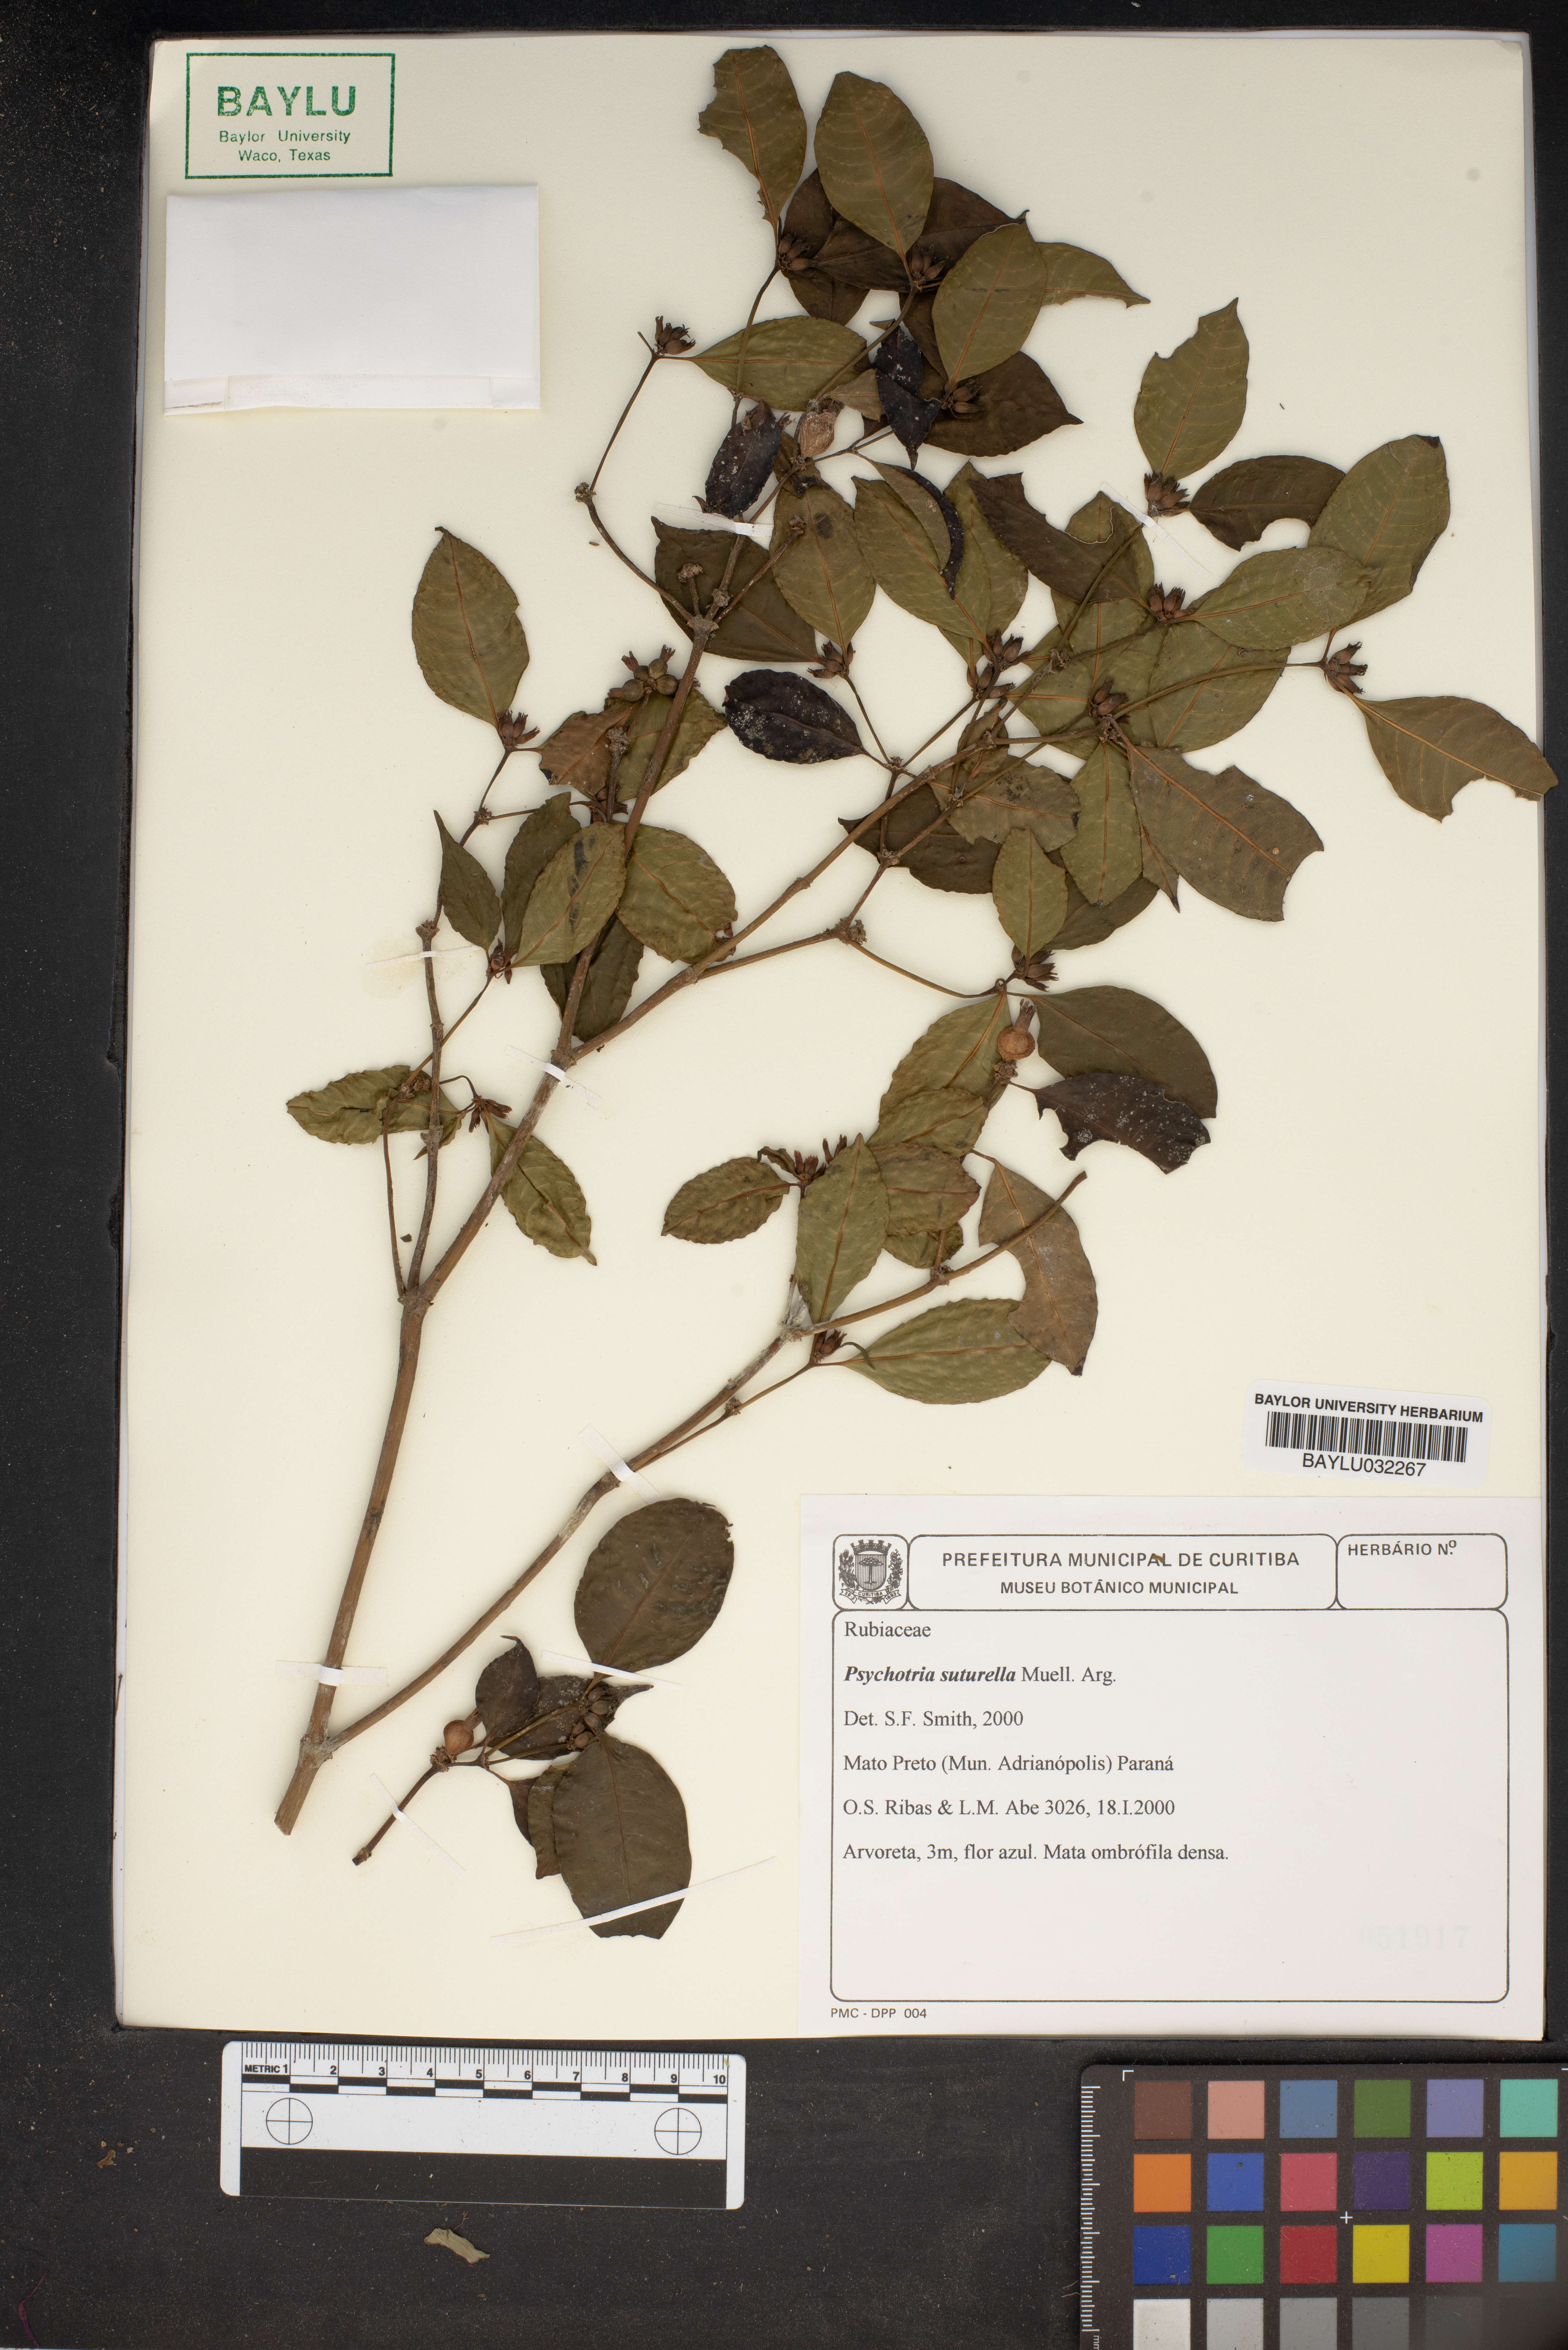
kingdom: Plantae
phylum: Tracheophyta
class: Magnoliopsida
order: Gentianales
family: Rubiaceae
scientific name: Rubiaceae
